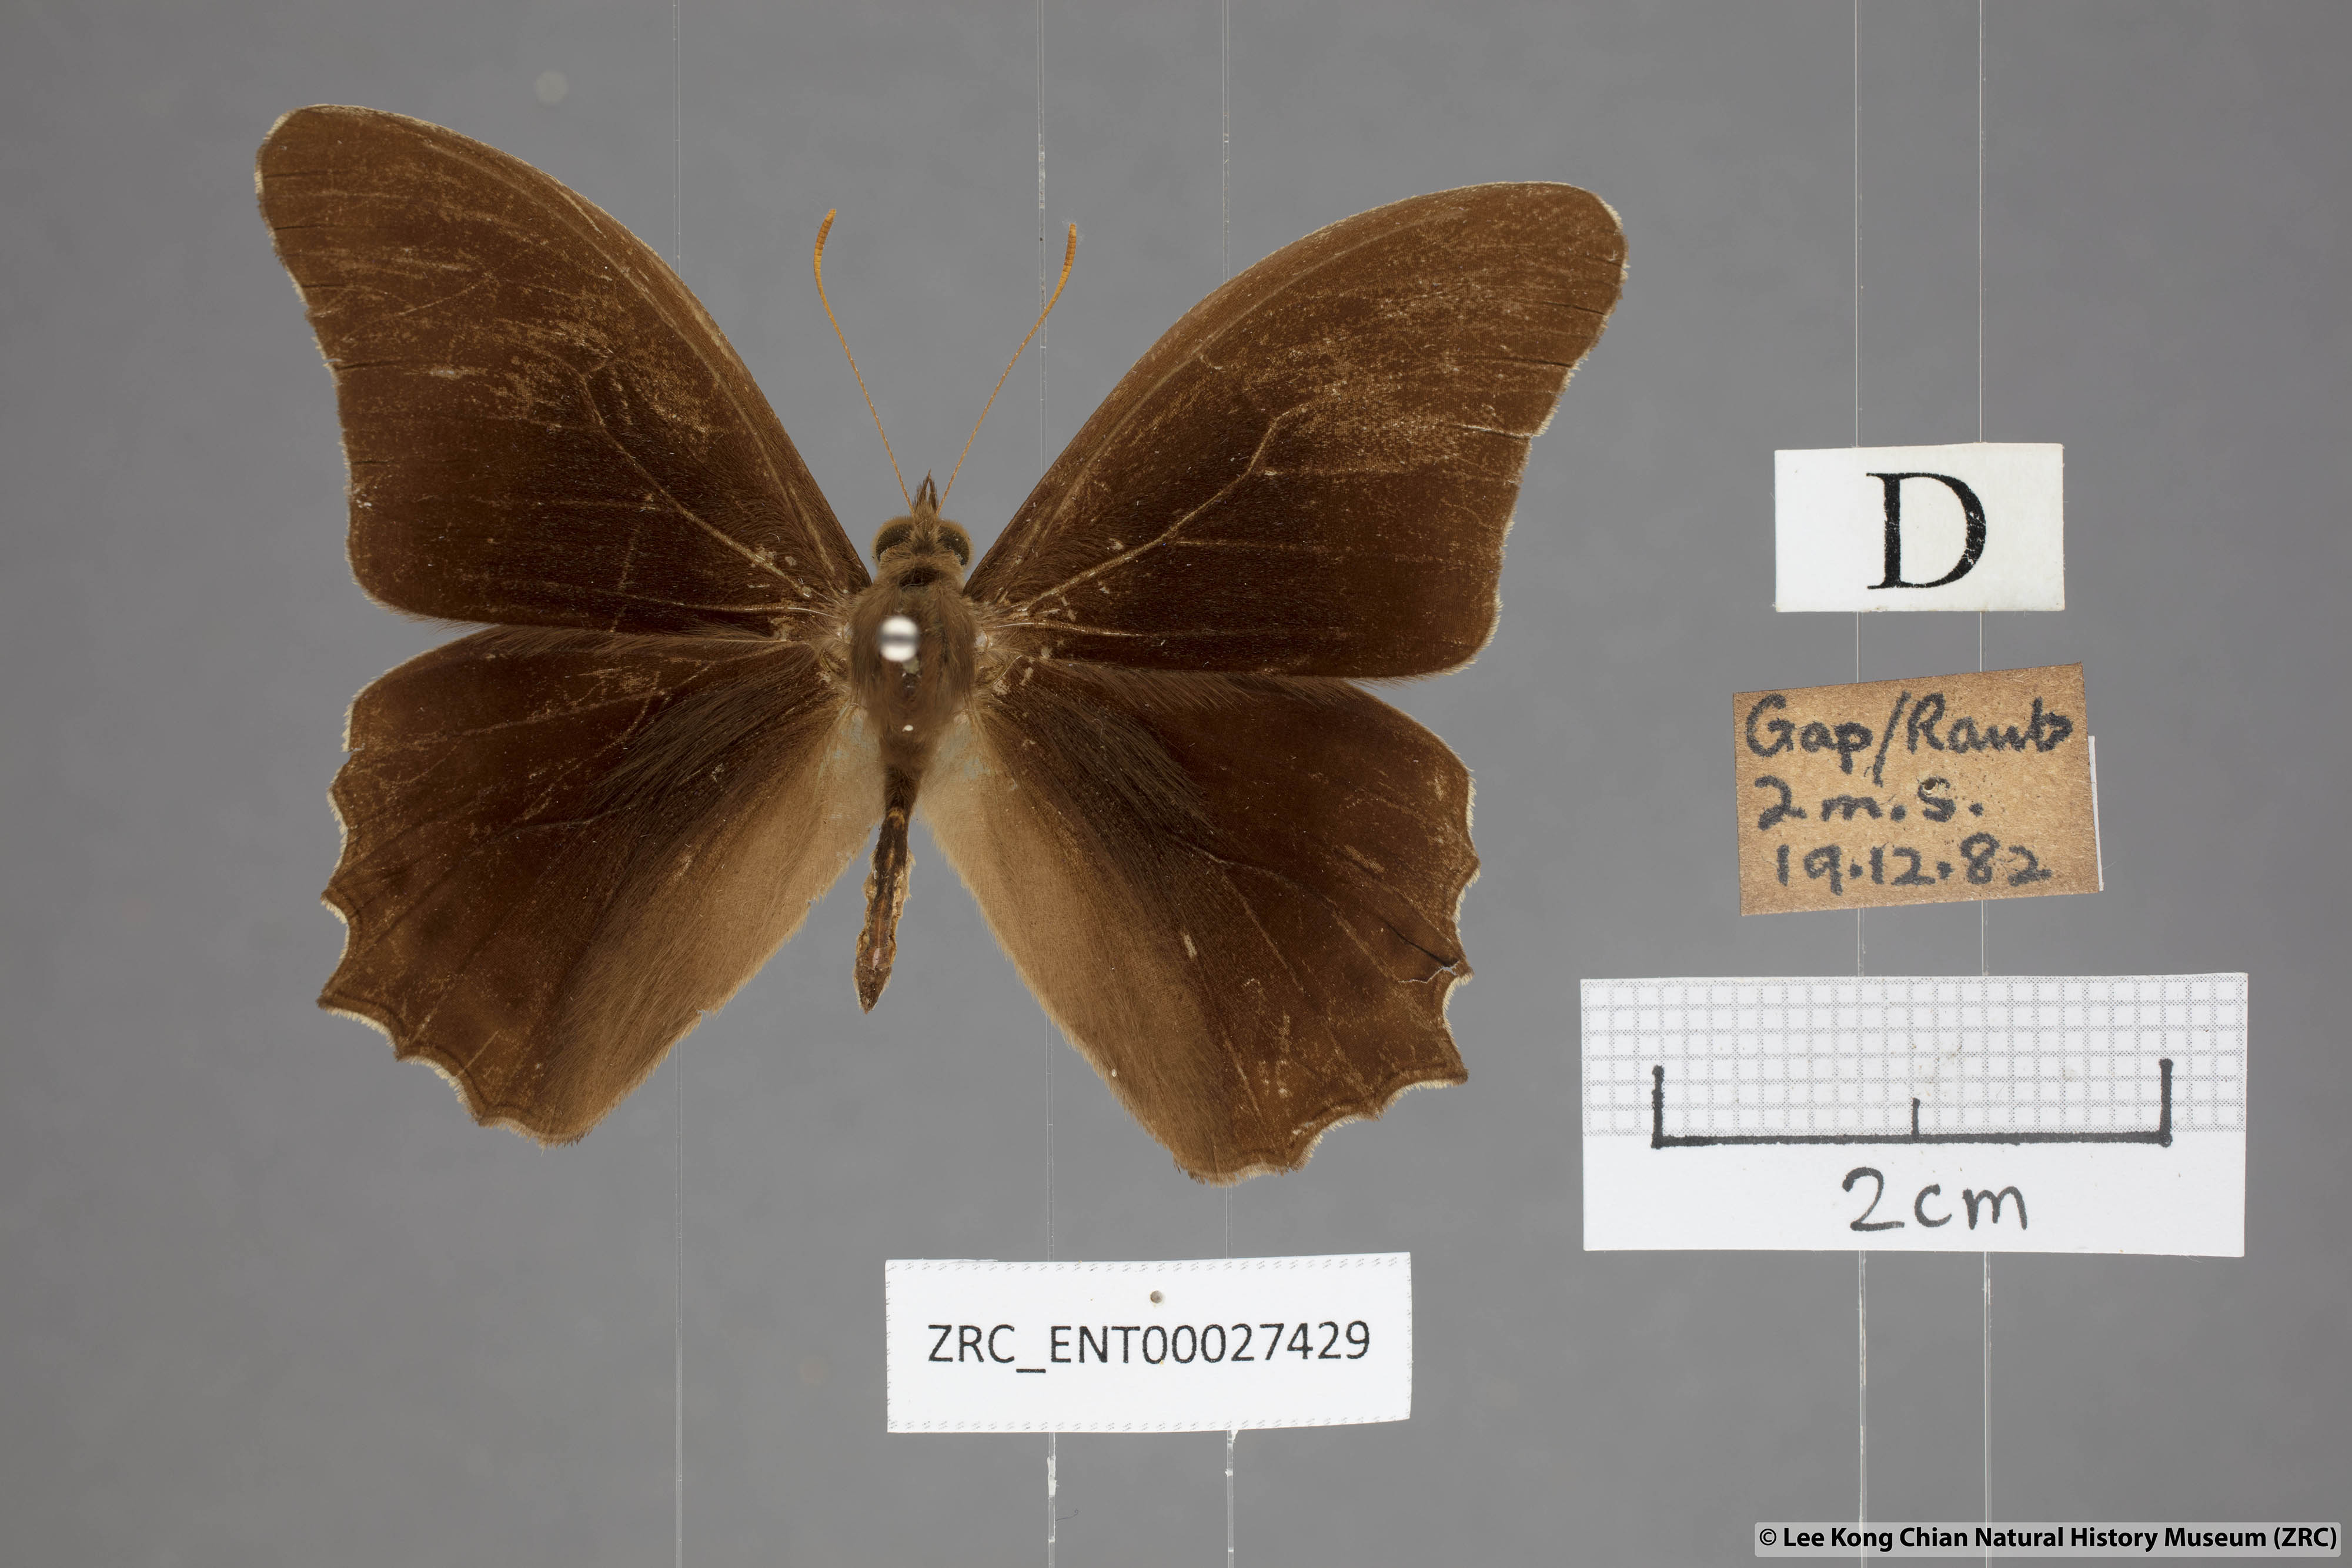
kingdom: Animalia
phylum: Arthropoda
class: Insecta
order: Lepidoptera
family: Nymphalidae
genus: Lethe
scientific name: Lethe chandica
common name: Angled red forester
